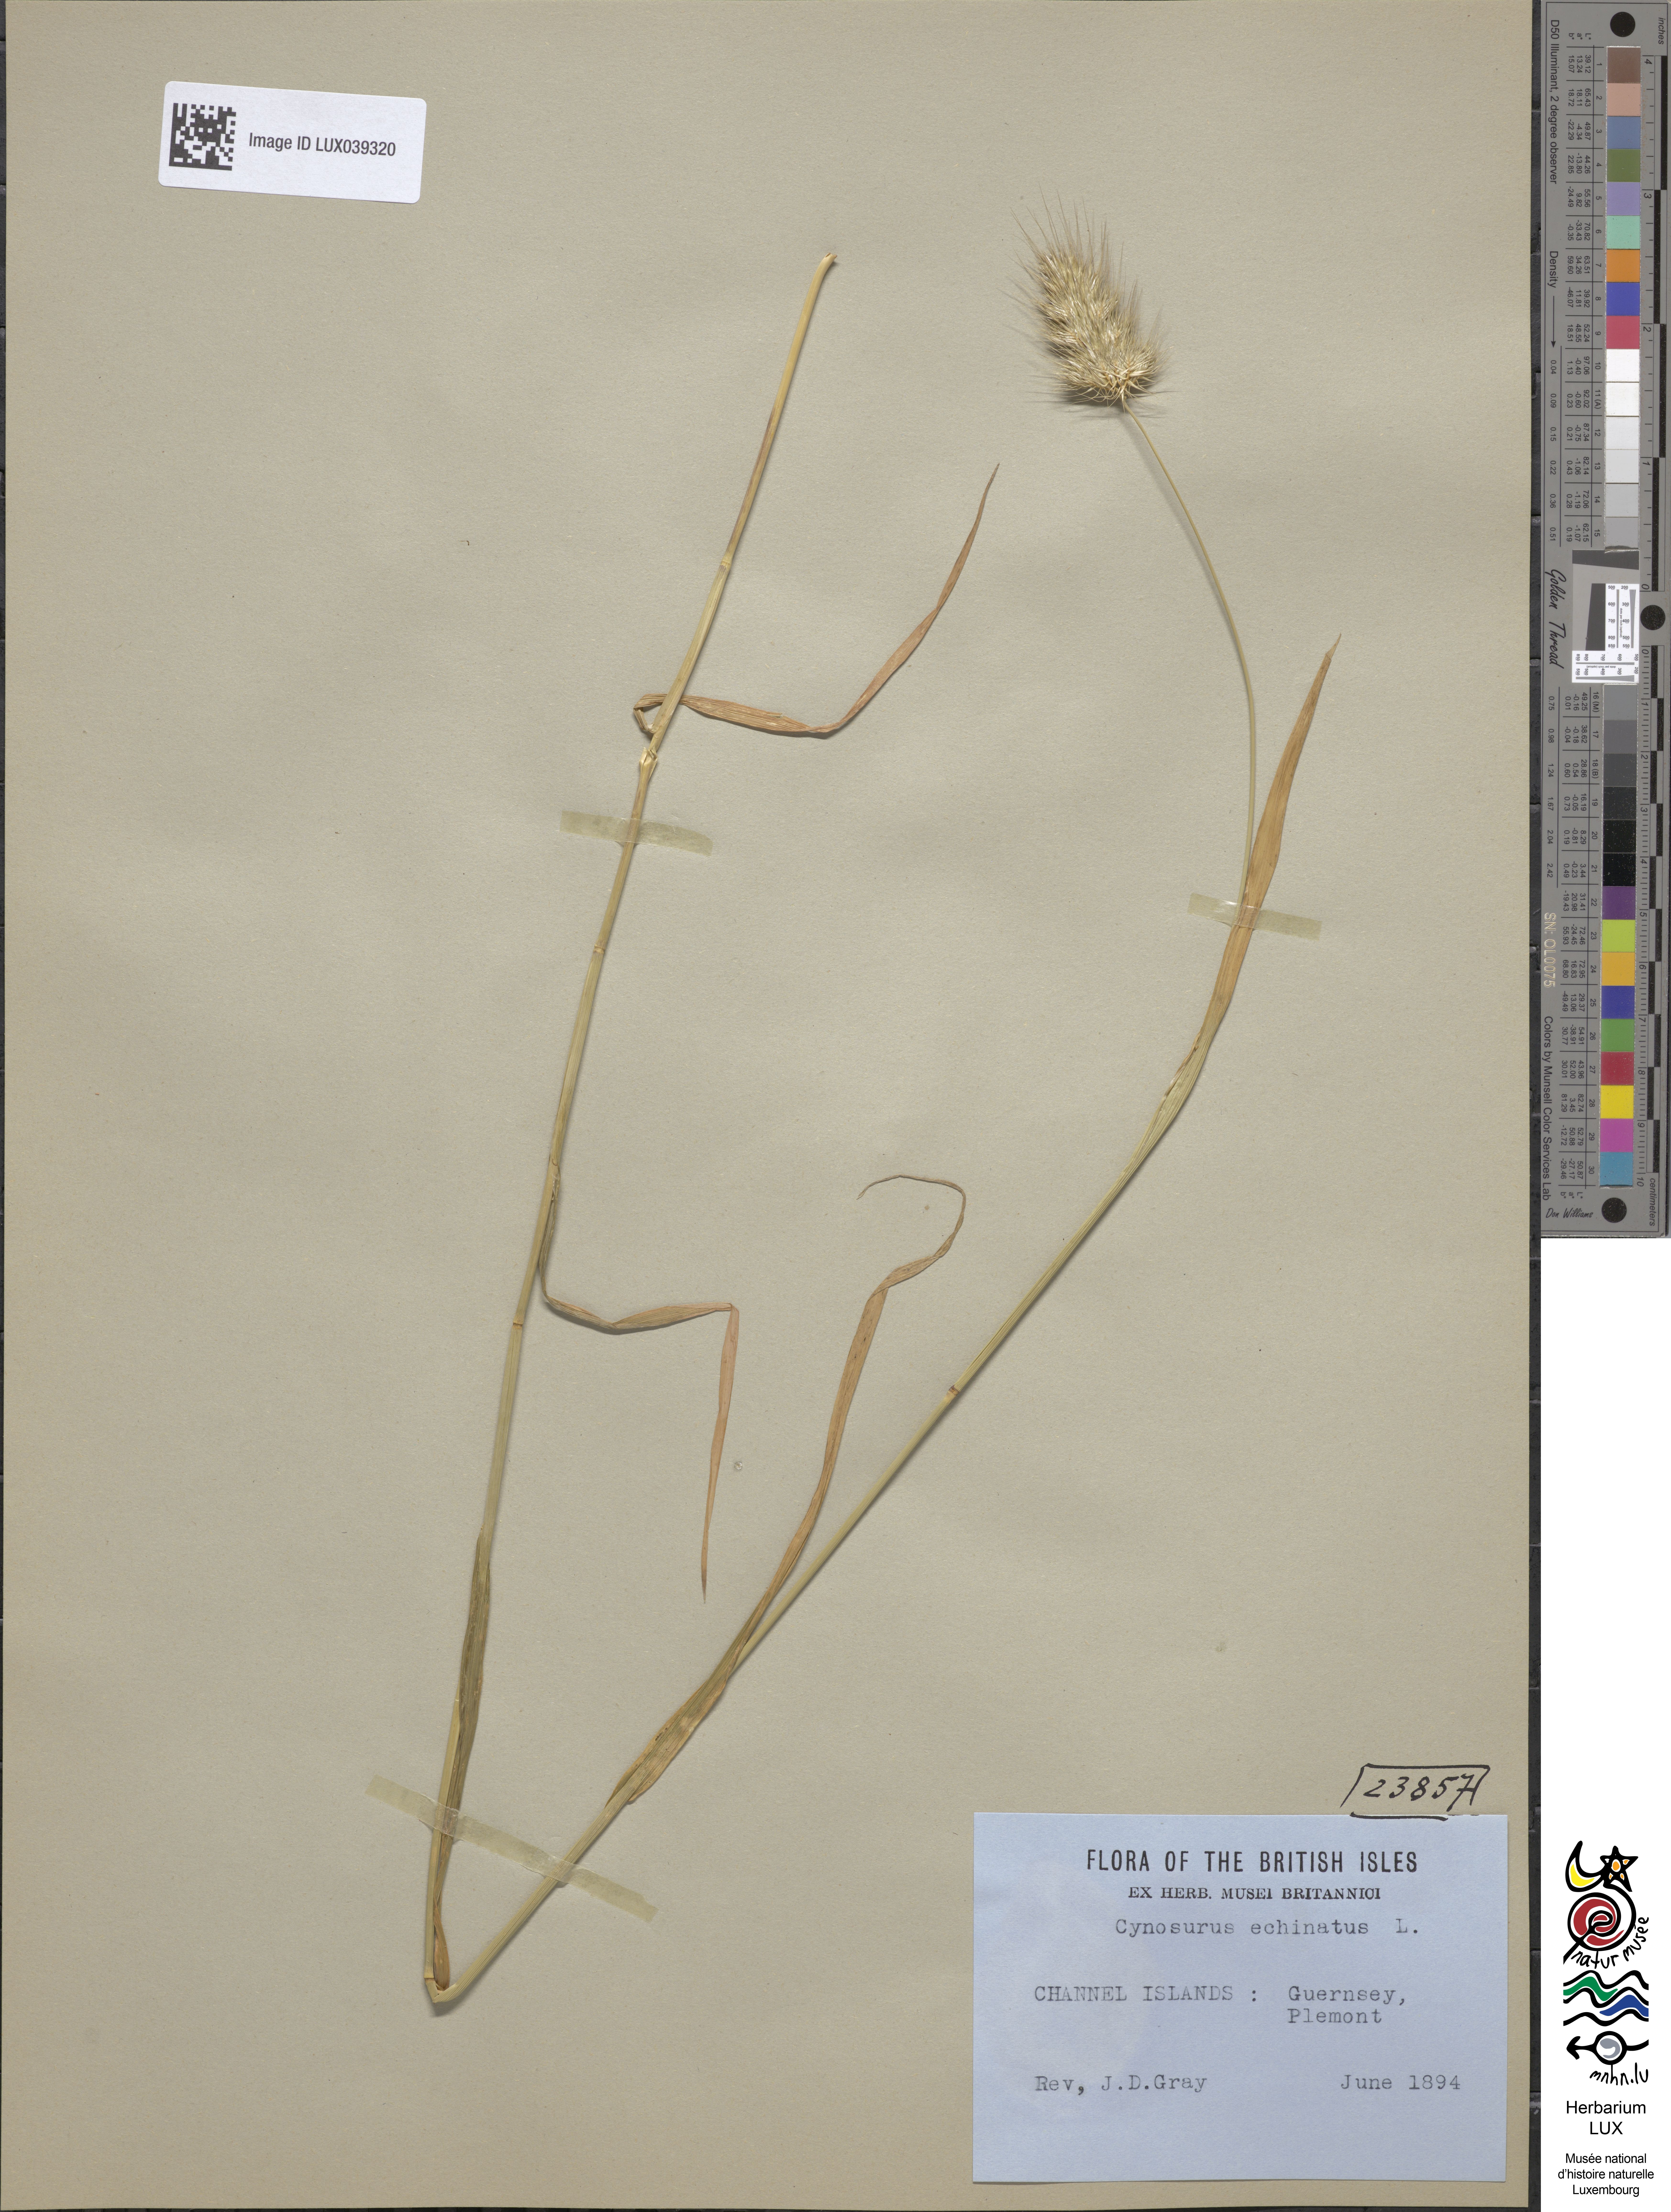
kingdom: Plantae
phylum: Tracheophyta
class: Liliopsida
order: Poales
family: Poaceae
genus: Cynosurus
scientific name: Cynosurus echinatus
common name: Rough dog's-tail
